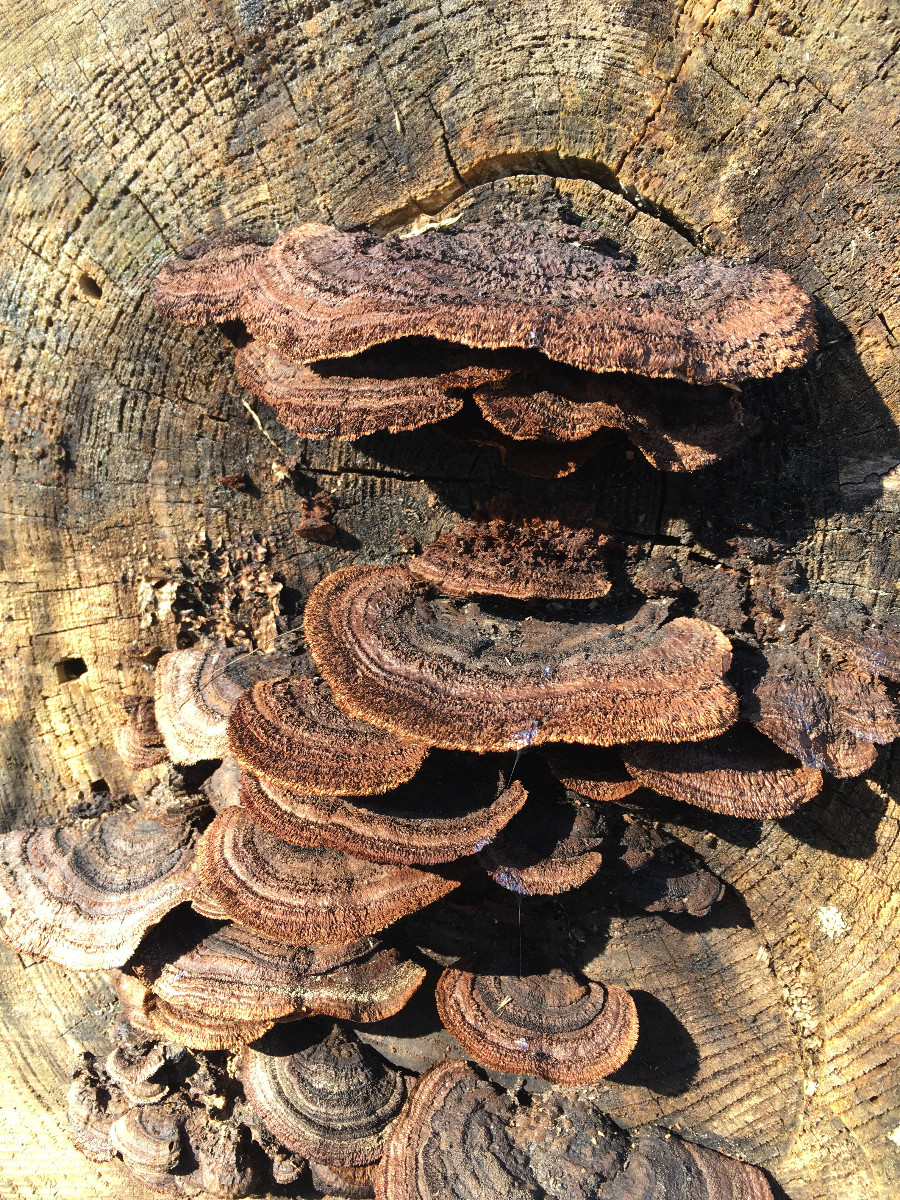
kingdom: Fungi
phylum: Basidiomycota
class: Agaricomycetes
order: Gloeophyllales
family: Gloeophyllaceae
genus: Gloeophyllum
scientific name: Gloeophyllum sepiarium
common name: fyrre-korkhat
